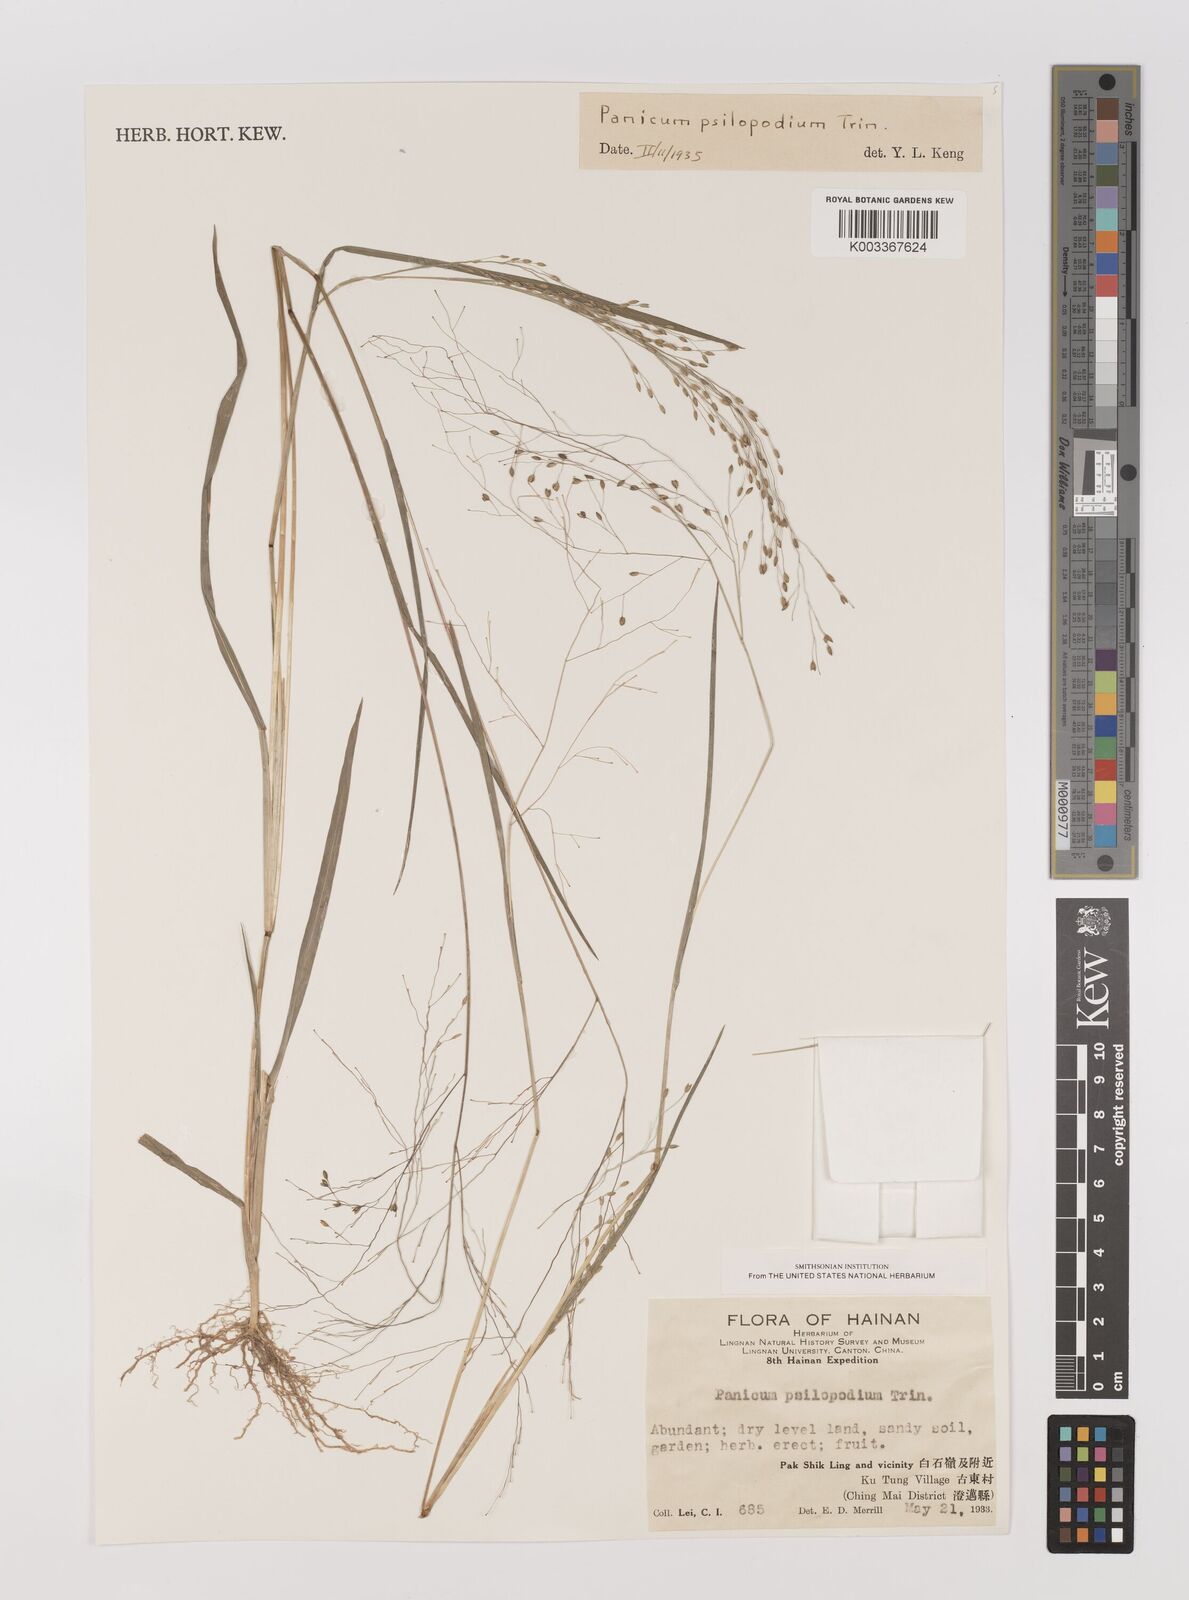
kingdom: Plantae
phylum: Tracheophyta
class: Liliopsida
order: Poales
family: Poaceae
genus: Panicum
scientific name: Panicum sumatrense
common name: Little millet
